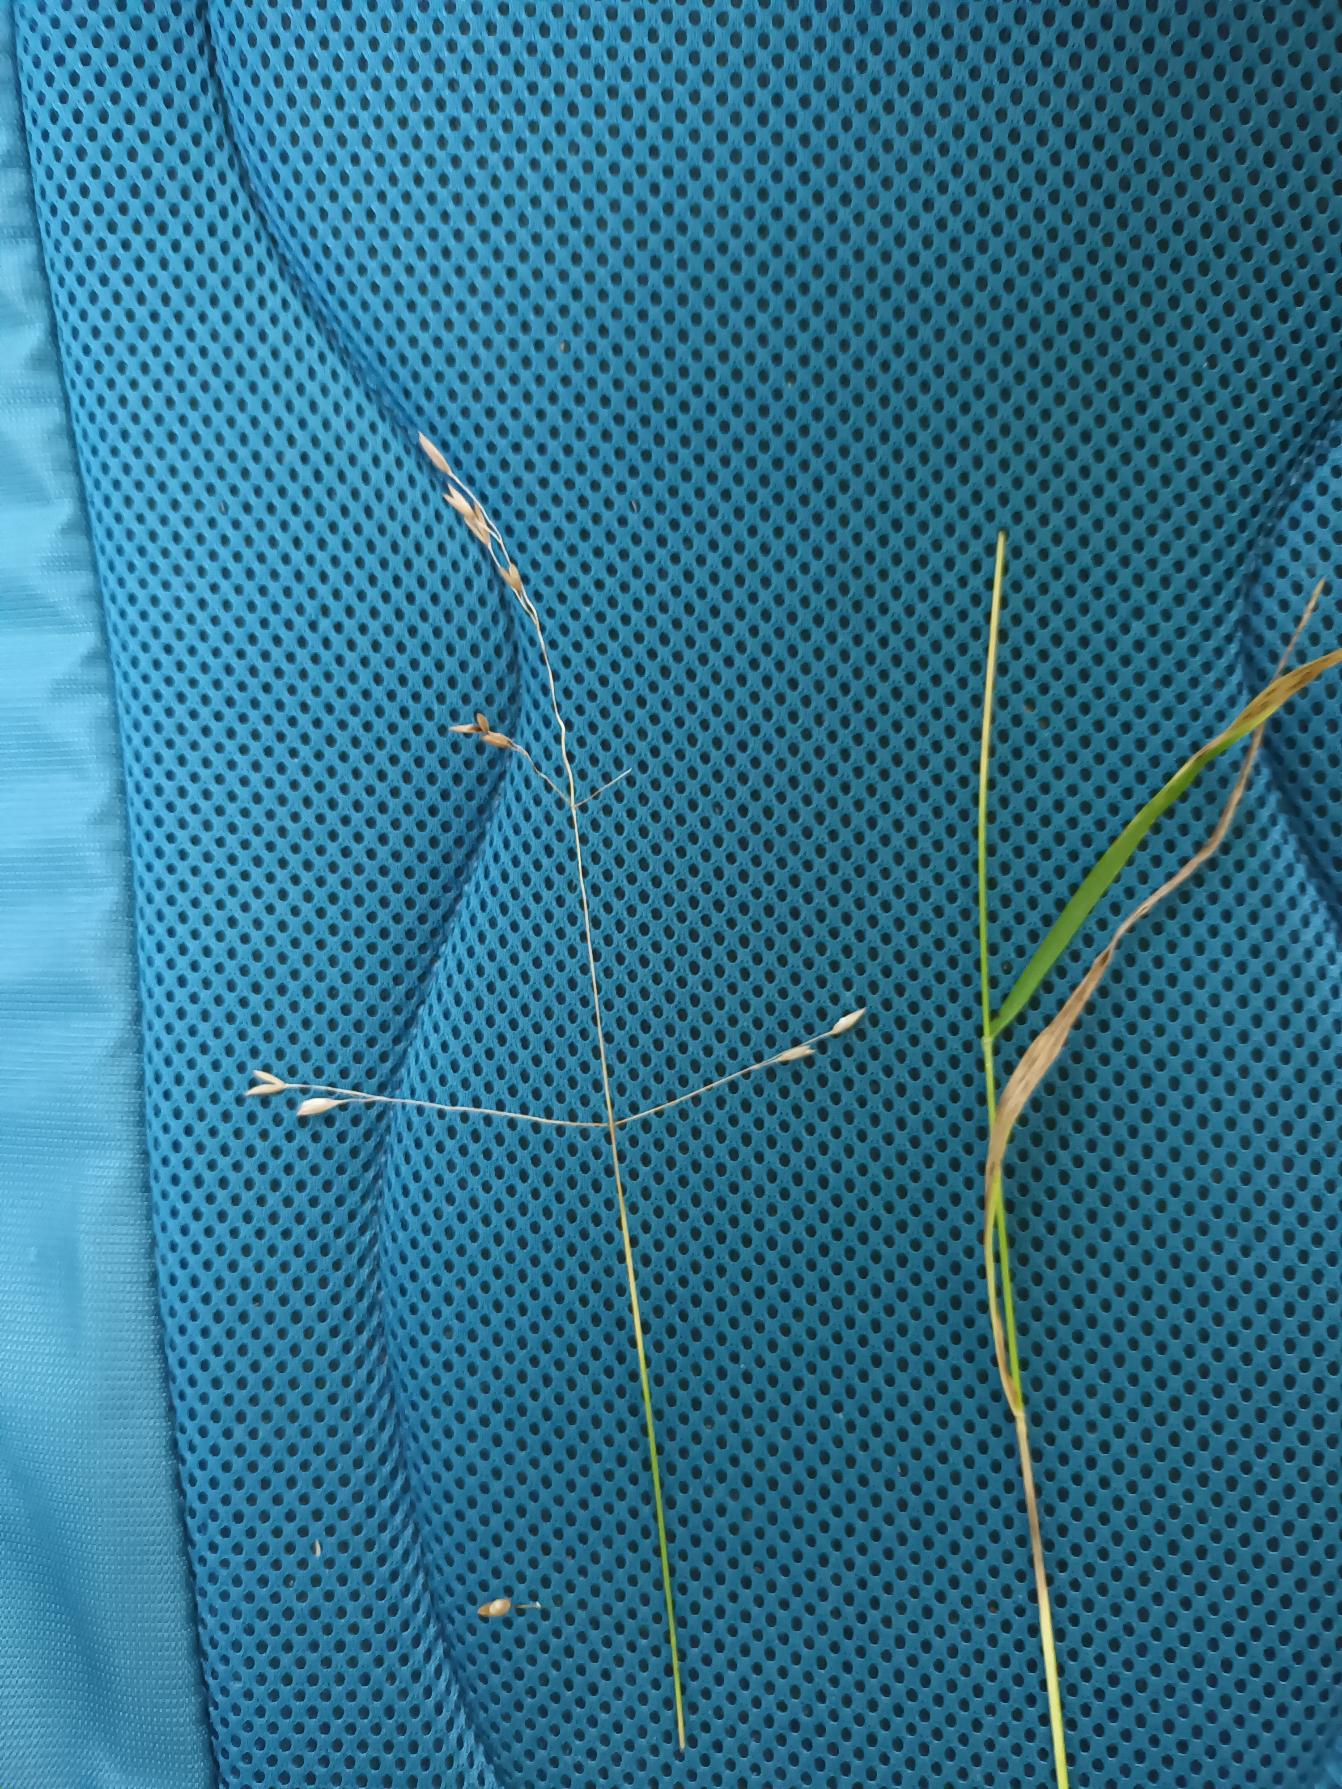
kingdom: Plantae
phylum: Tracheophyta
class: Liliopsida
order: Poales
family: Poaceae
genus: Melica
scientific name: Melica uniflora
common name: Enblomstret flitteraks
